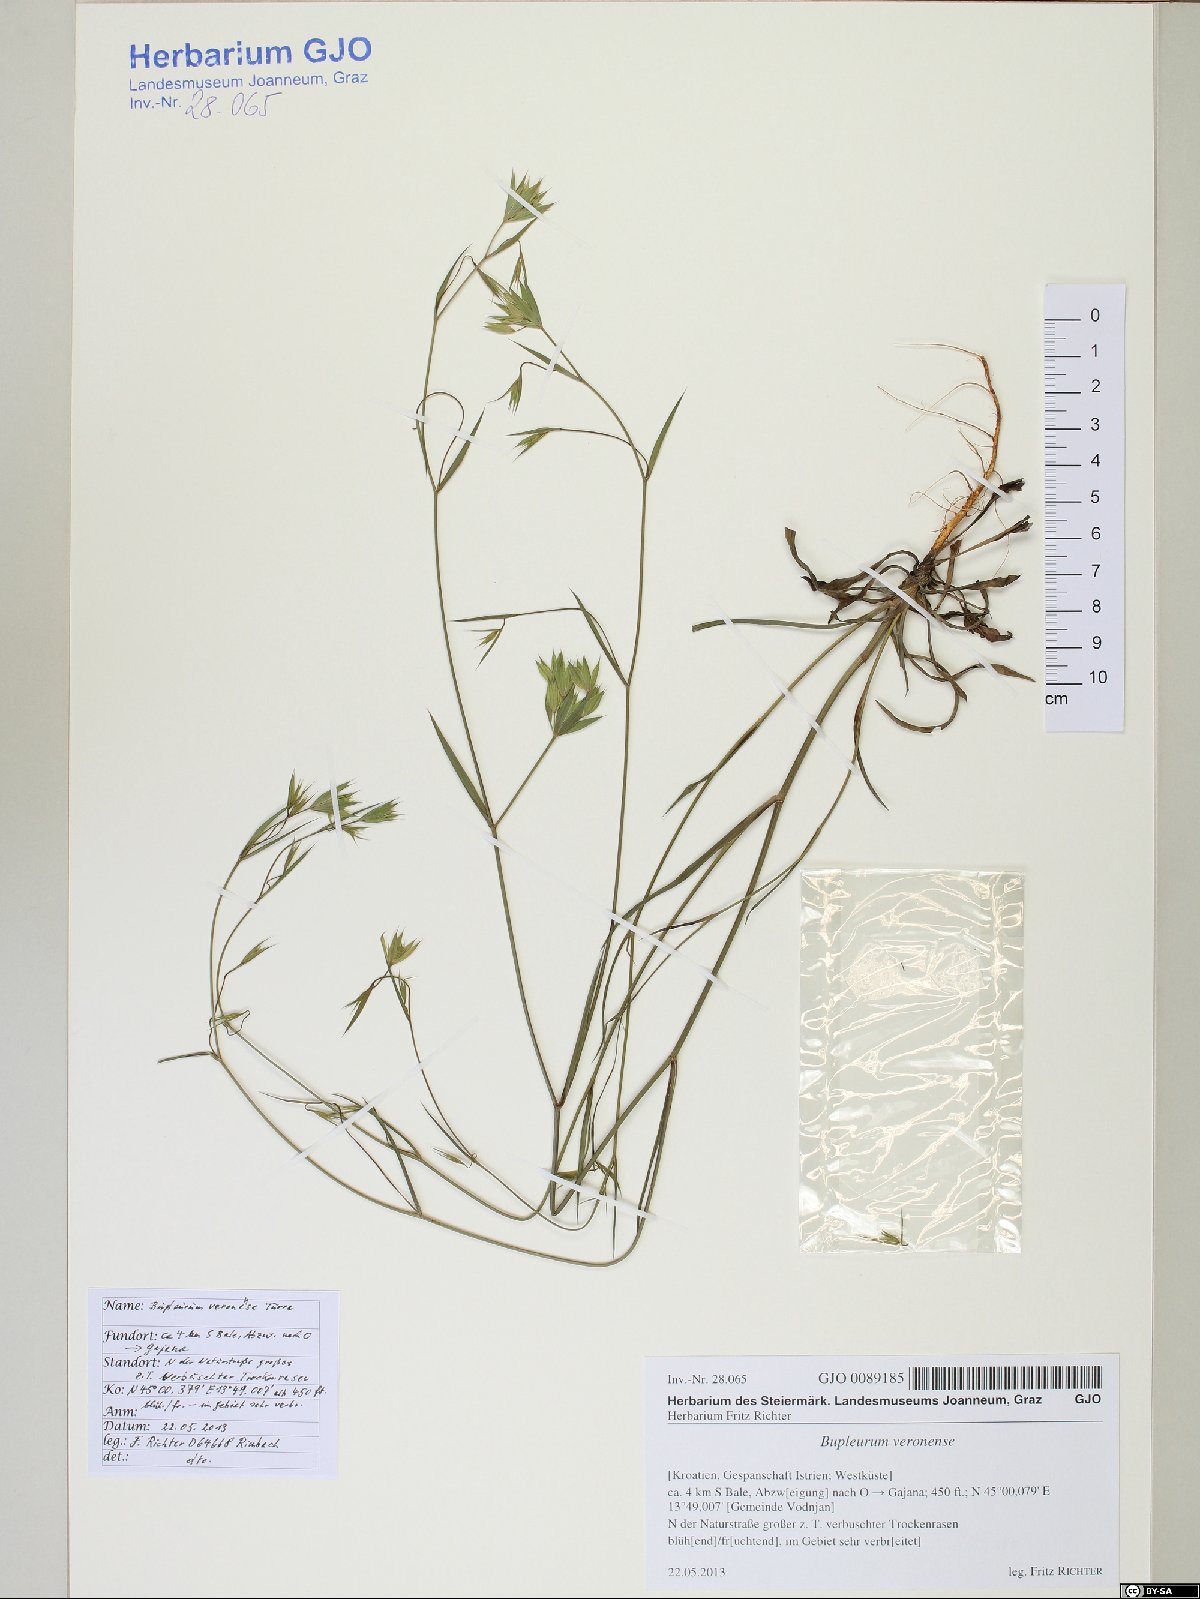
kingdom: Plantae
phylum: Tracheophyta
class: Magnoliopsida
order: Apiales
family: Apiaceae
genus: Bupleurum
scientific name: Bupleurum veronense
